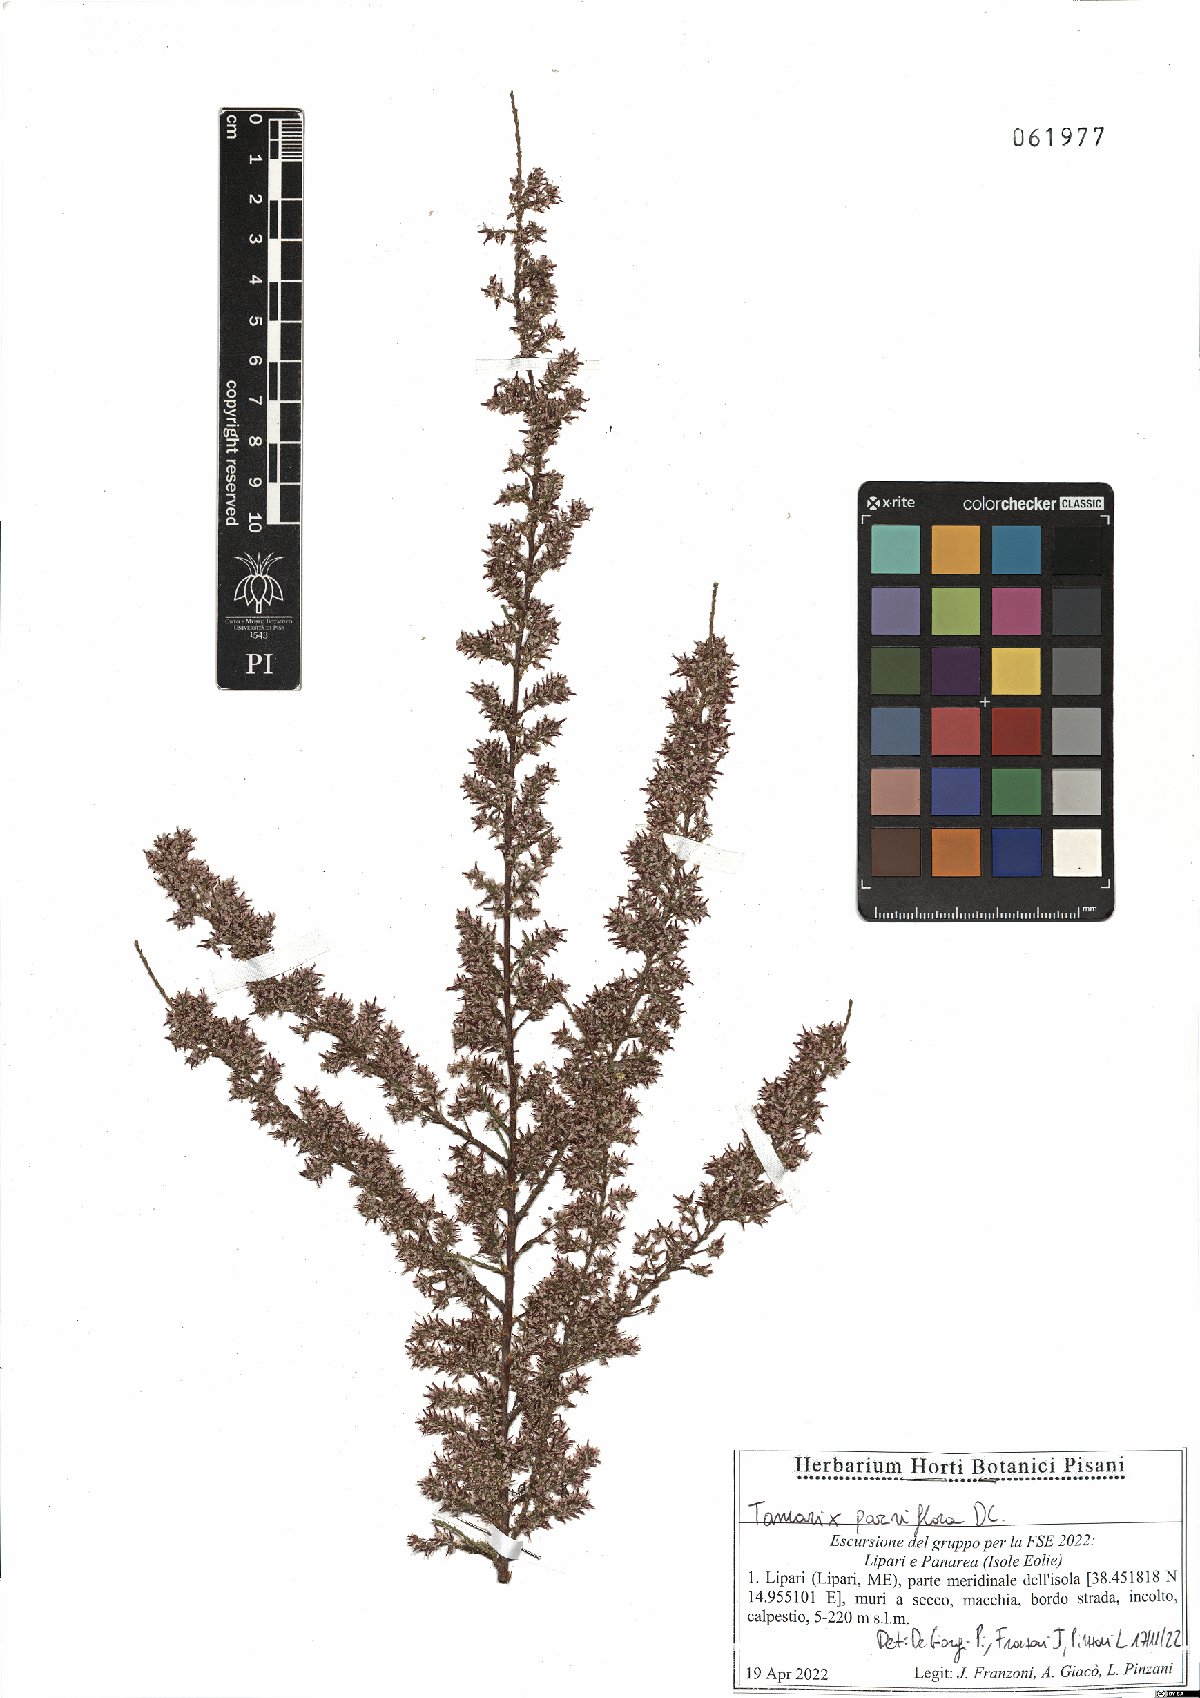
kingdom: Plantae
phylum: Tracheophyta
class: Magnoliopsida
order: Caryophyllales
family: Tamaricaceae
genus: Tamarix
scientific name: Tamarix parviflora
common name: Smallflower tamarisk
